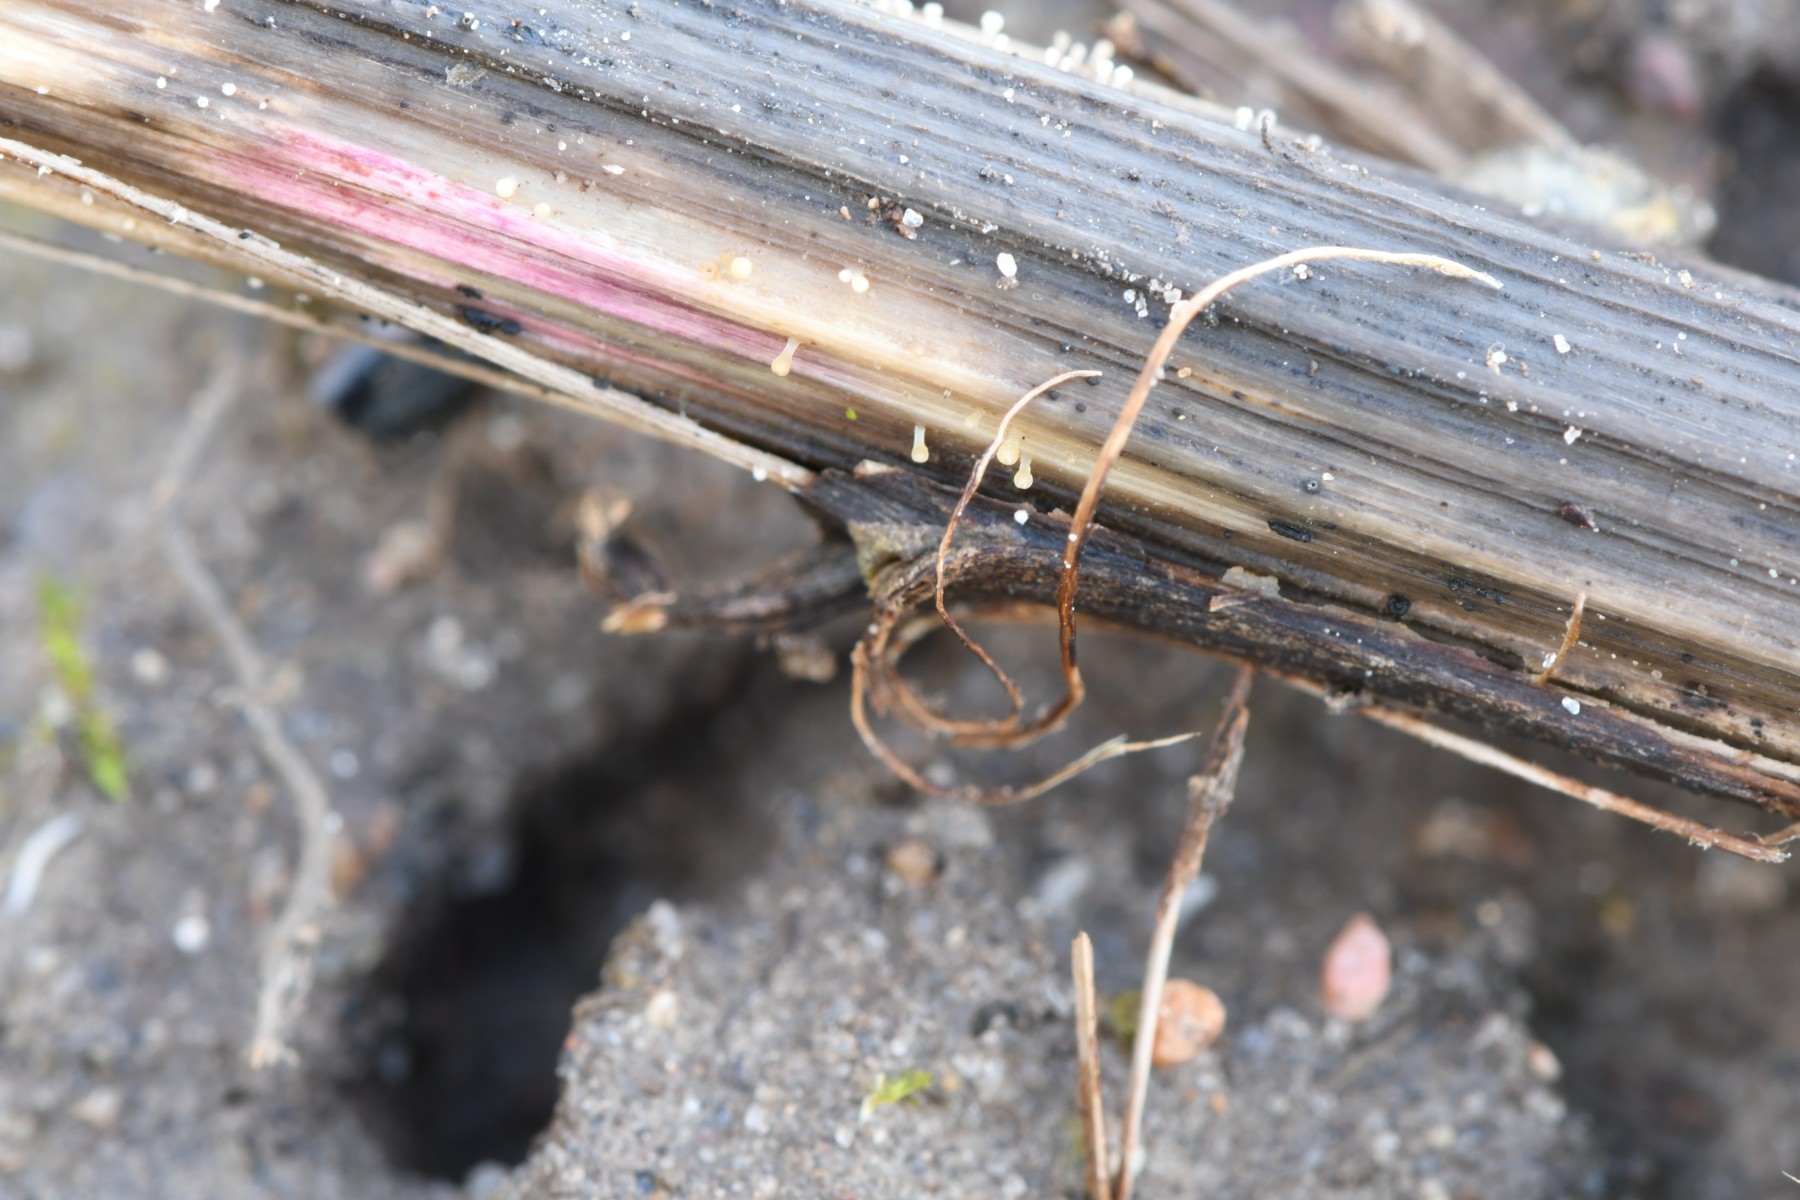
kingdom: Fungi
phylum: Ascomycota
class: Leotiomycetes
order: Helotiales
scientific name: Helotiales
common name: stilkskiveordenen
